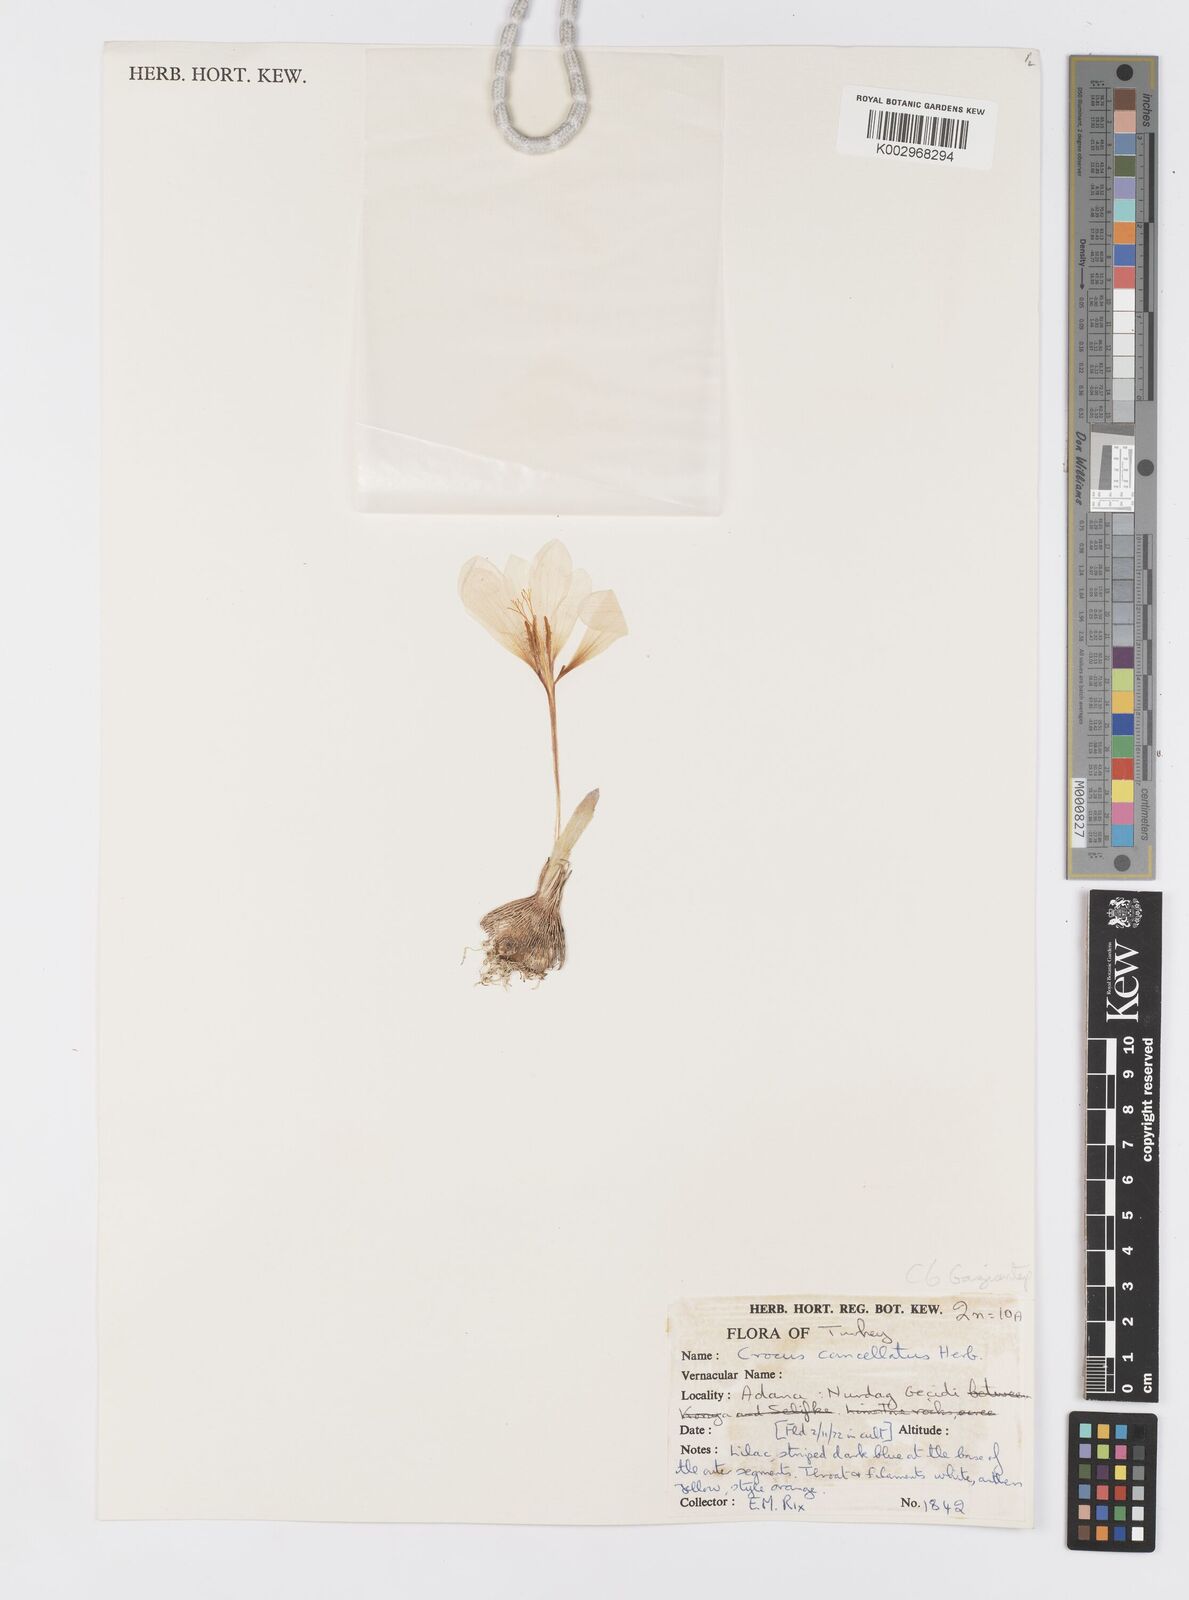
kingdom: Plantae
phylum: Tracheophyta
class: Liliopsida
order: Asparagales
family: Iridaceae
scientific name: Iridaceae
